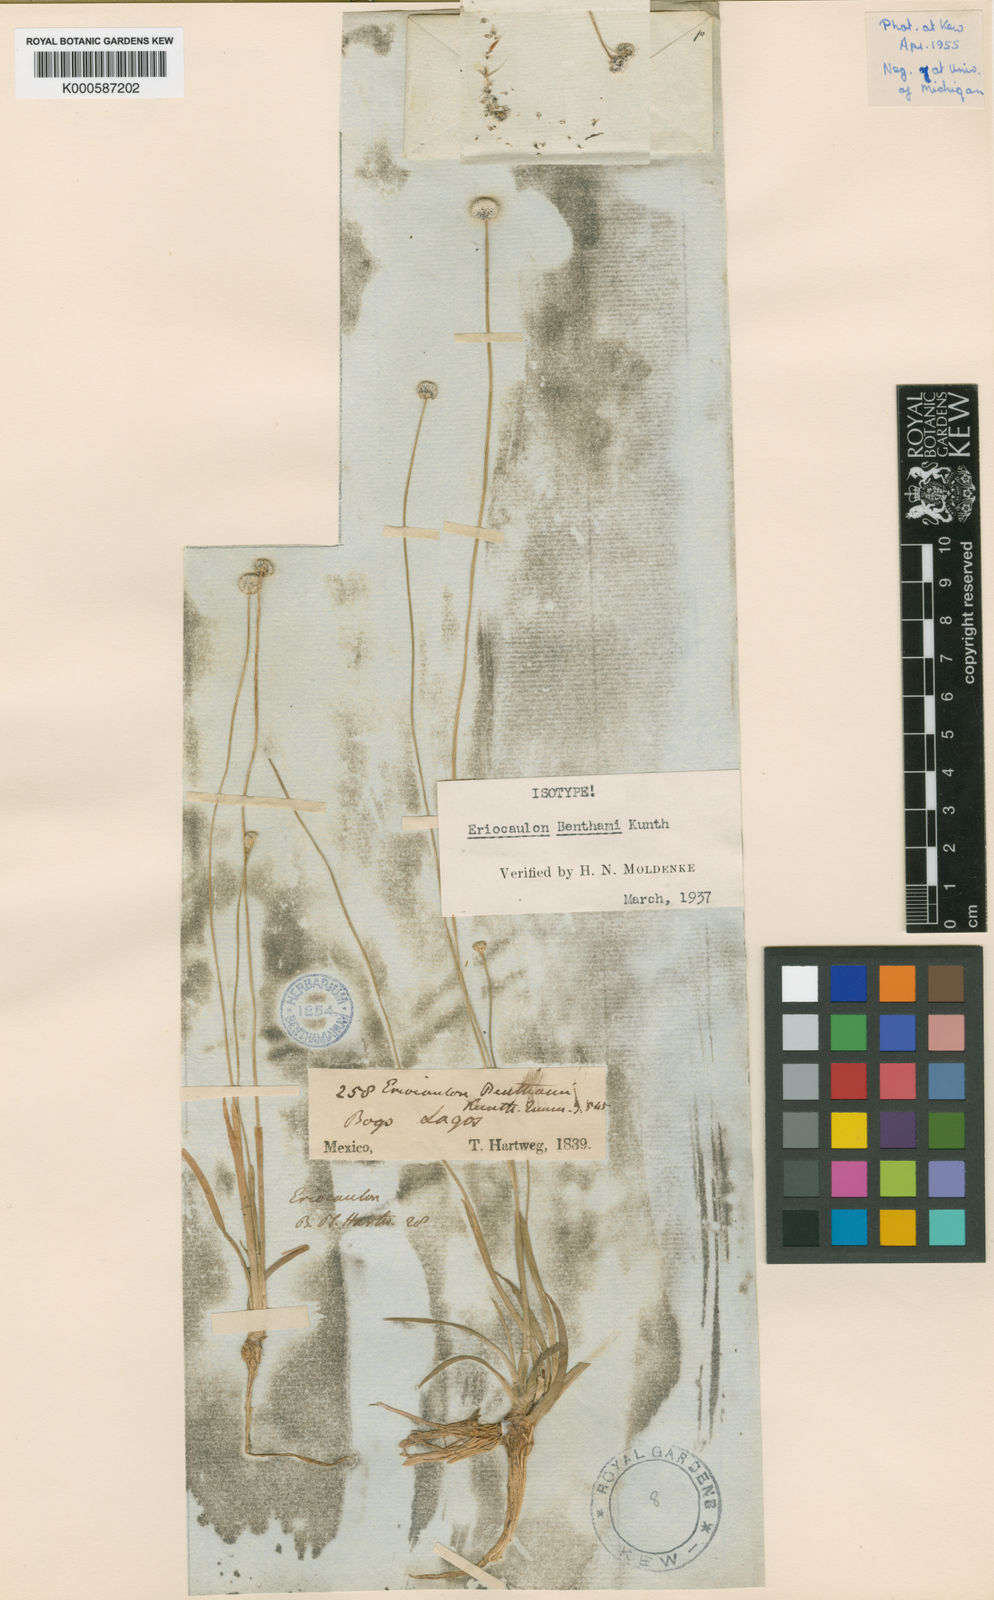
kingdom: Plantae
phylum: Tracheophyta
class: Liliopsida
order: Poales
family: Eriocaulaceae
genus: Eriocaulon
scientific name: Eriocaulon benthamii
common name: Bentham's pipewort
